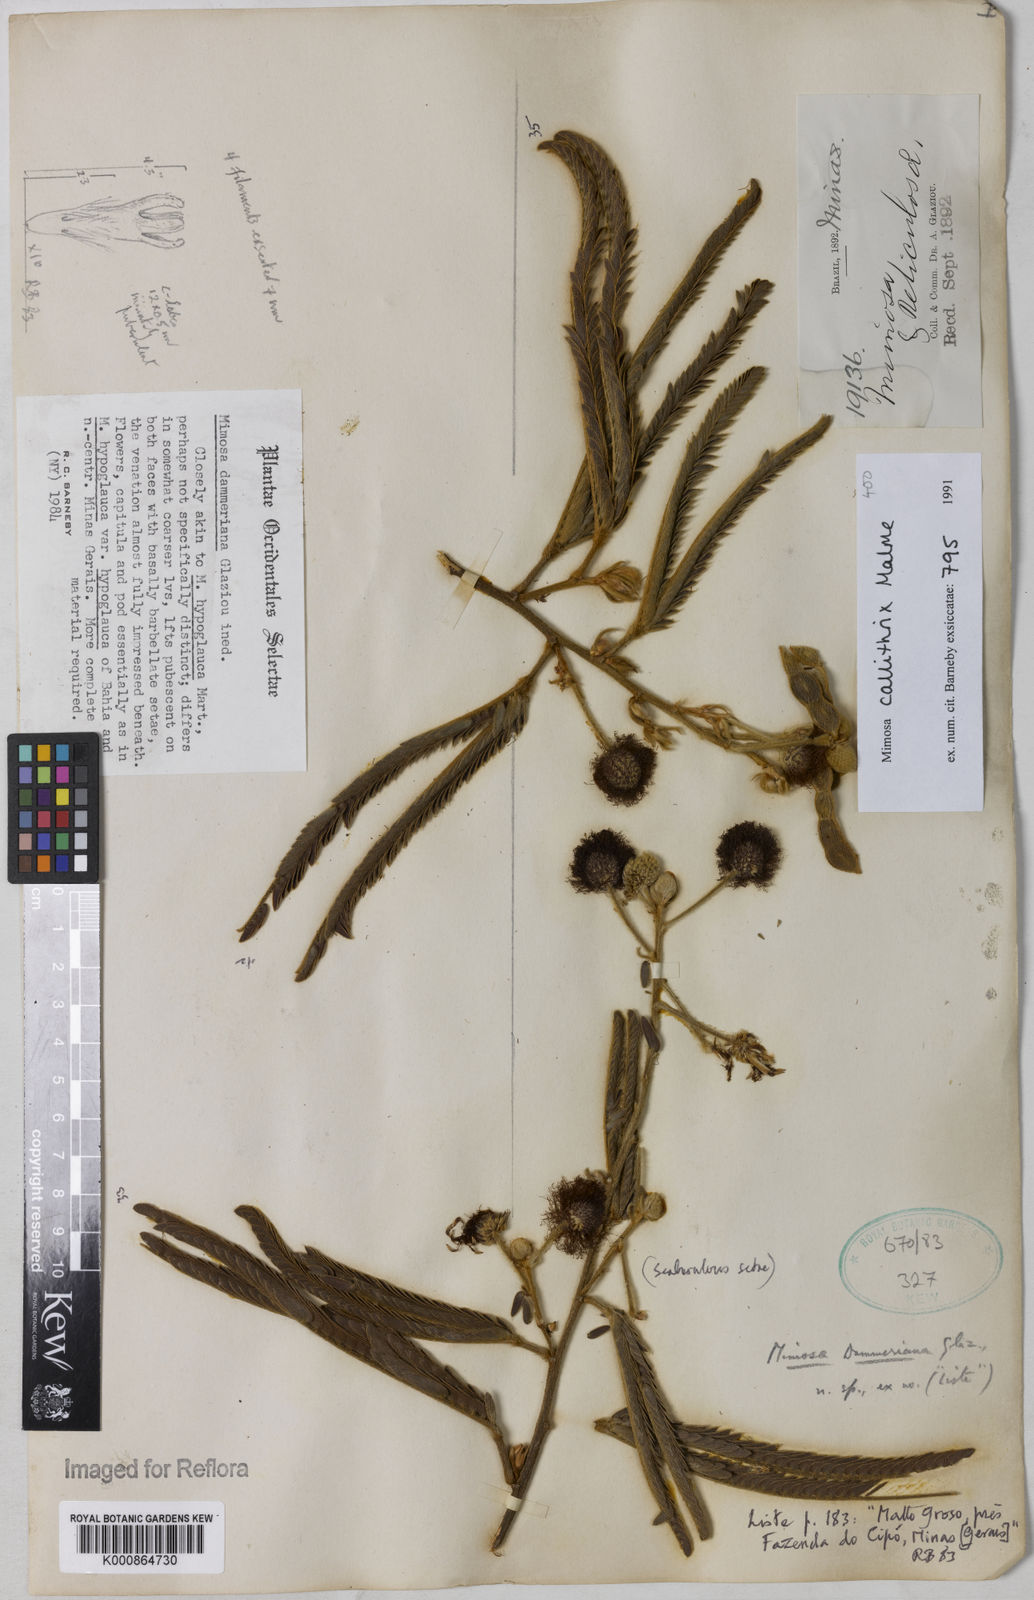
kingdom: Plantae
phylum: Tracheophyta
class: Magnoliopsida
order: Fabales
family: Fabaceae
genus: Mimosa
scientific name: Mimosa callithrix
